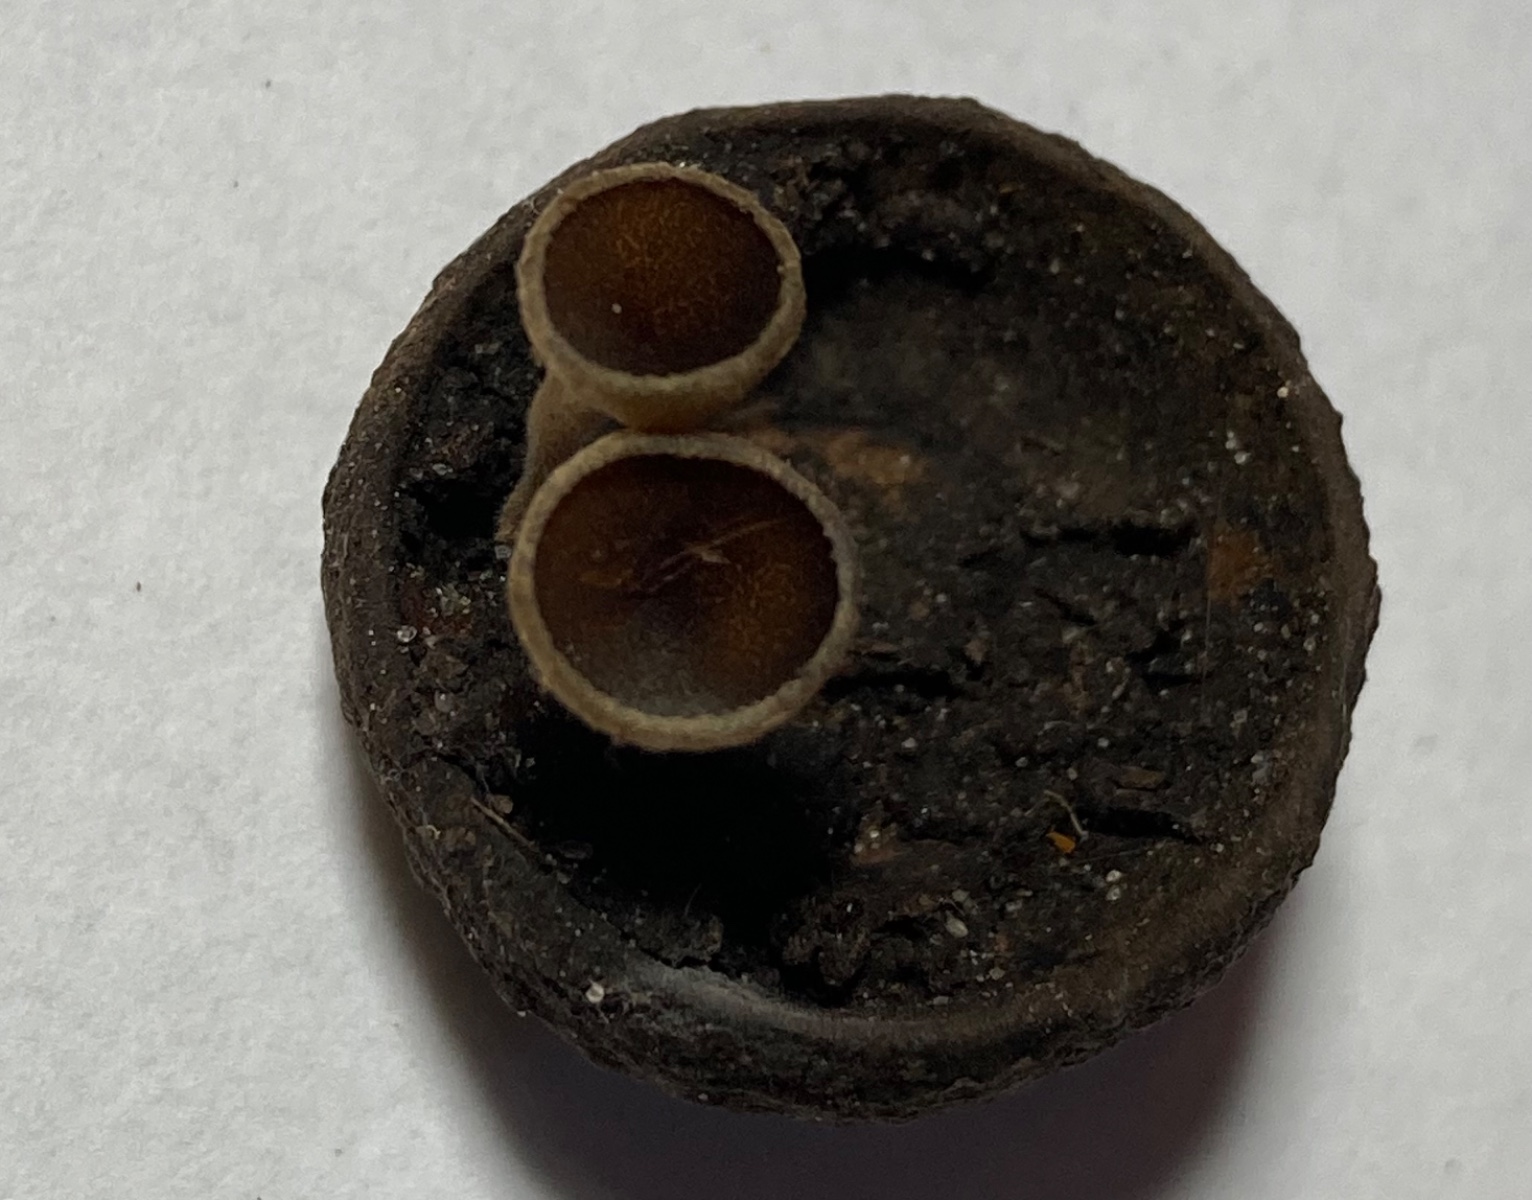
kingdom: Fungi
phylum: Ascomycota
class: Leotiomycetes
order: Helotiales
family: Rutstroemiaceae
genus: Lanzia
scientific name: Lanzia echinophila
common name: kastanie-brunskive
